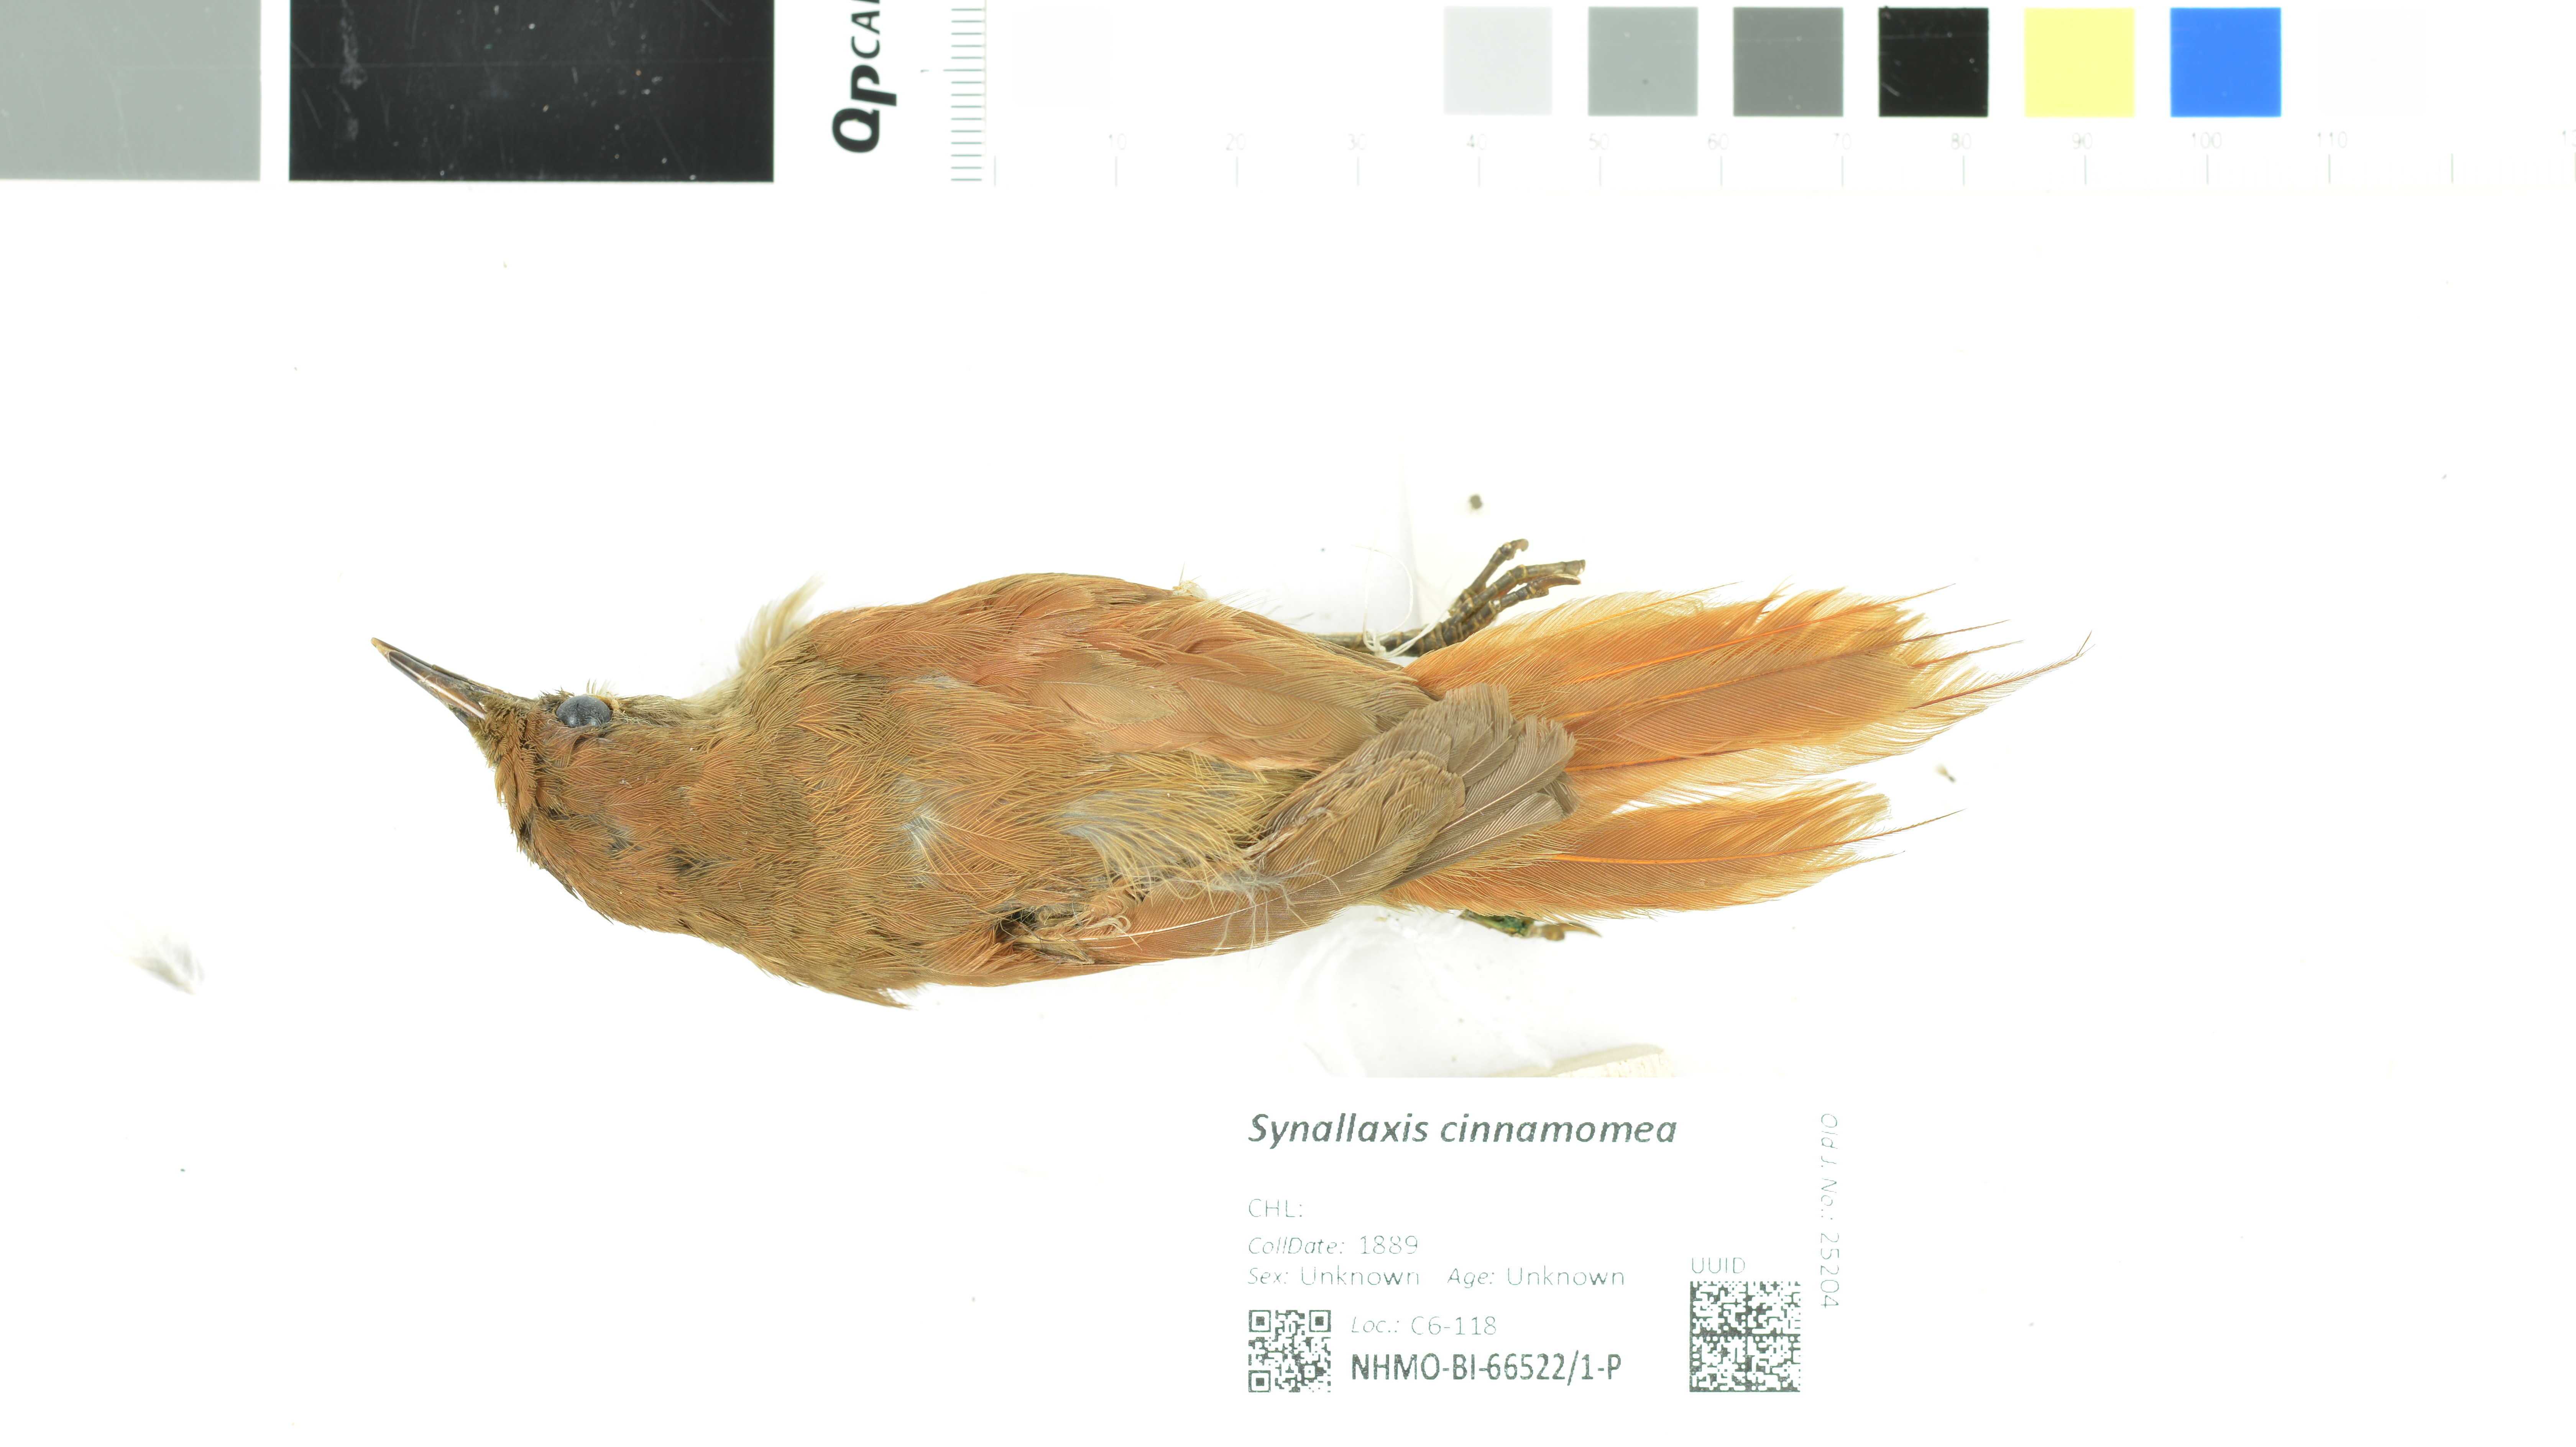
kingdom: Animalia
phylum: Chordata
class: Aves
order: Passeriformes
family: Furnariidae
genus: Synallaxis
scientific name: Synallaxis cinnamomea
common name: Stripe-breasted spinetail
